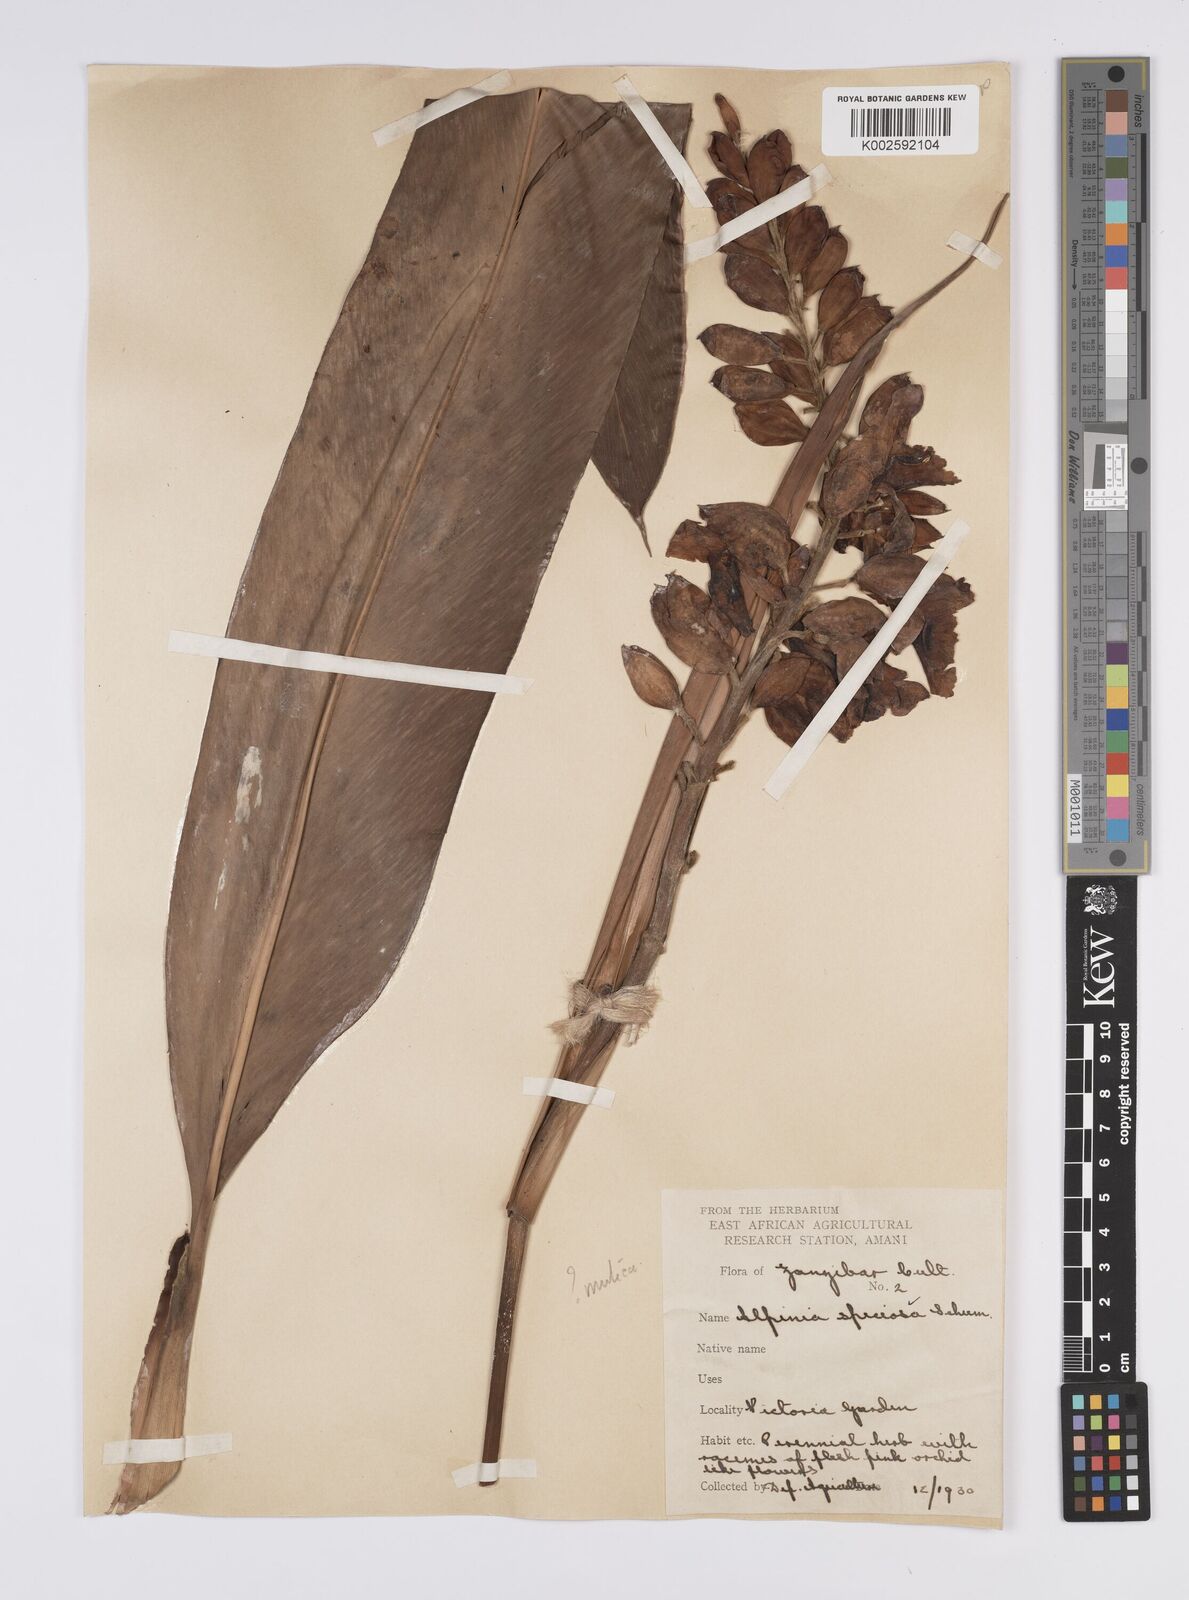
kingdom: Plantae
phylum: Tracheophyta
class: Liliopsida
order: Zingiberales
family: Zingiberaceae
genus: Alpinia
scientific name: Alpinia
